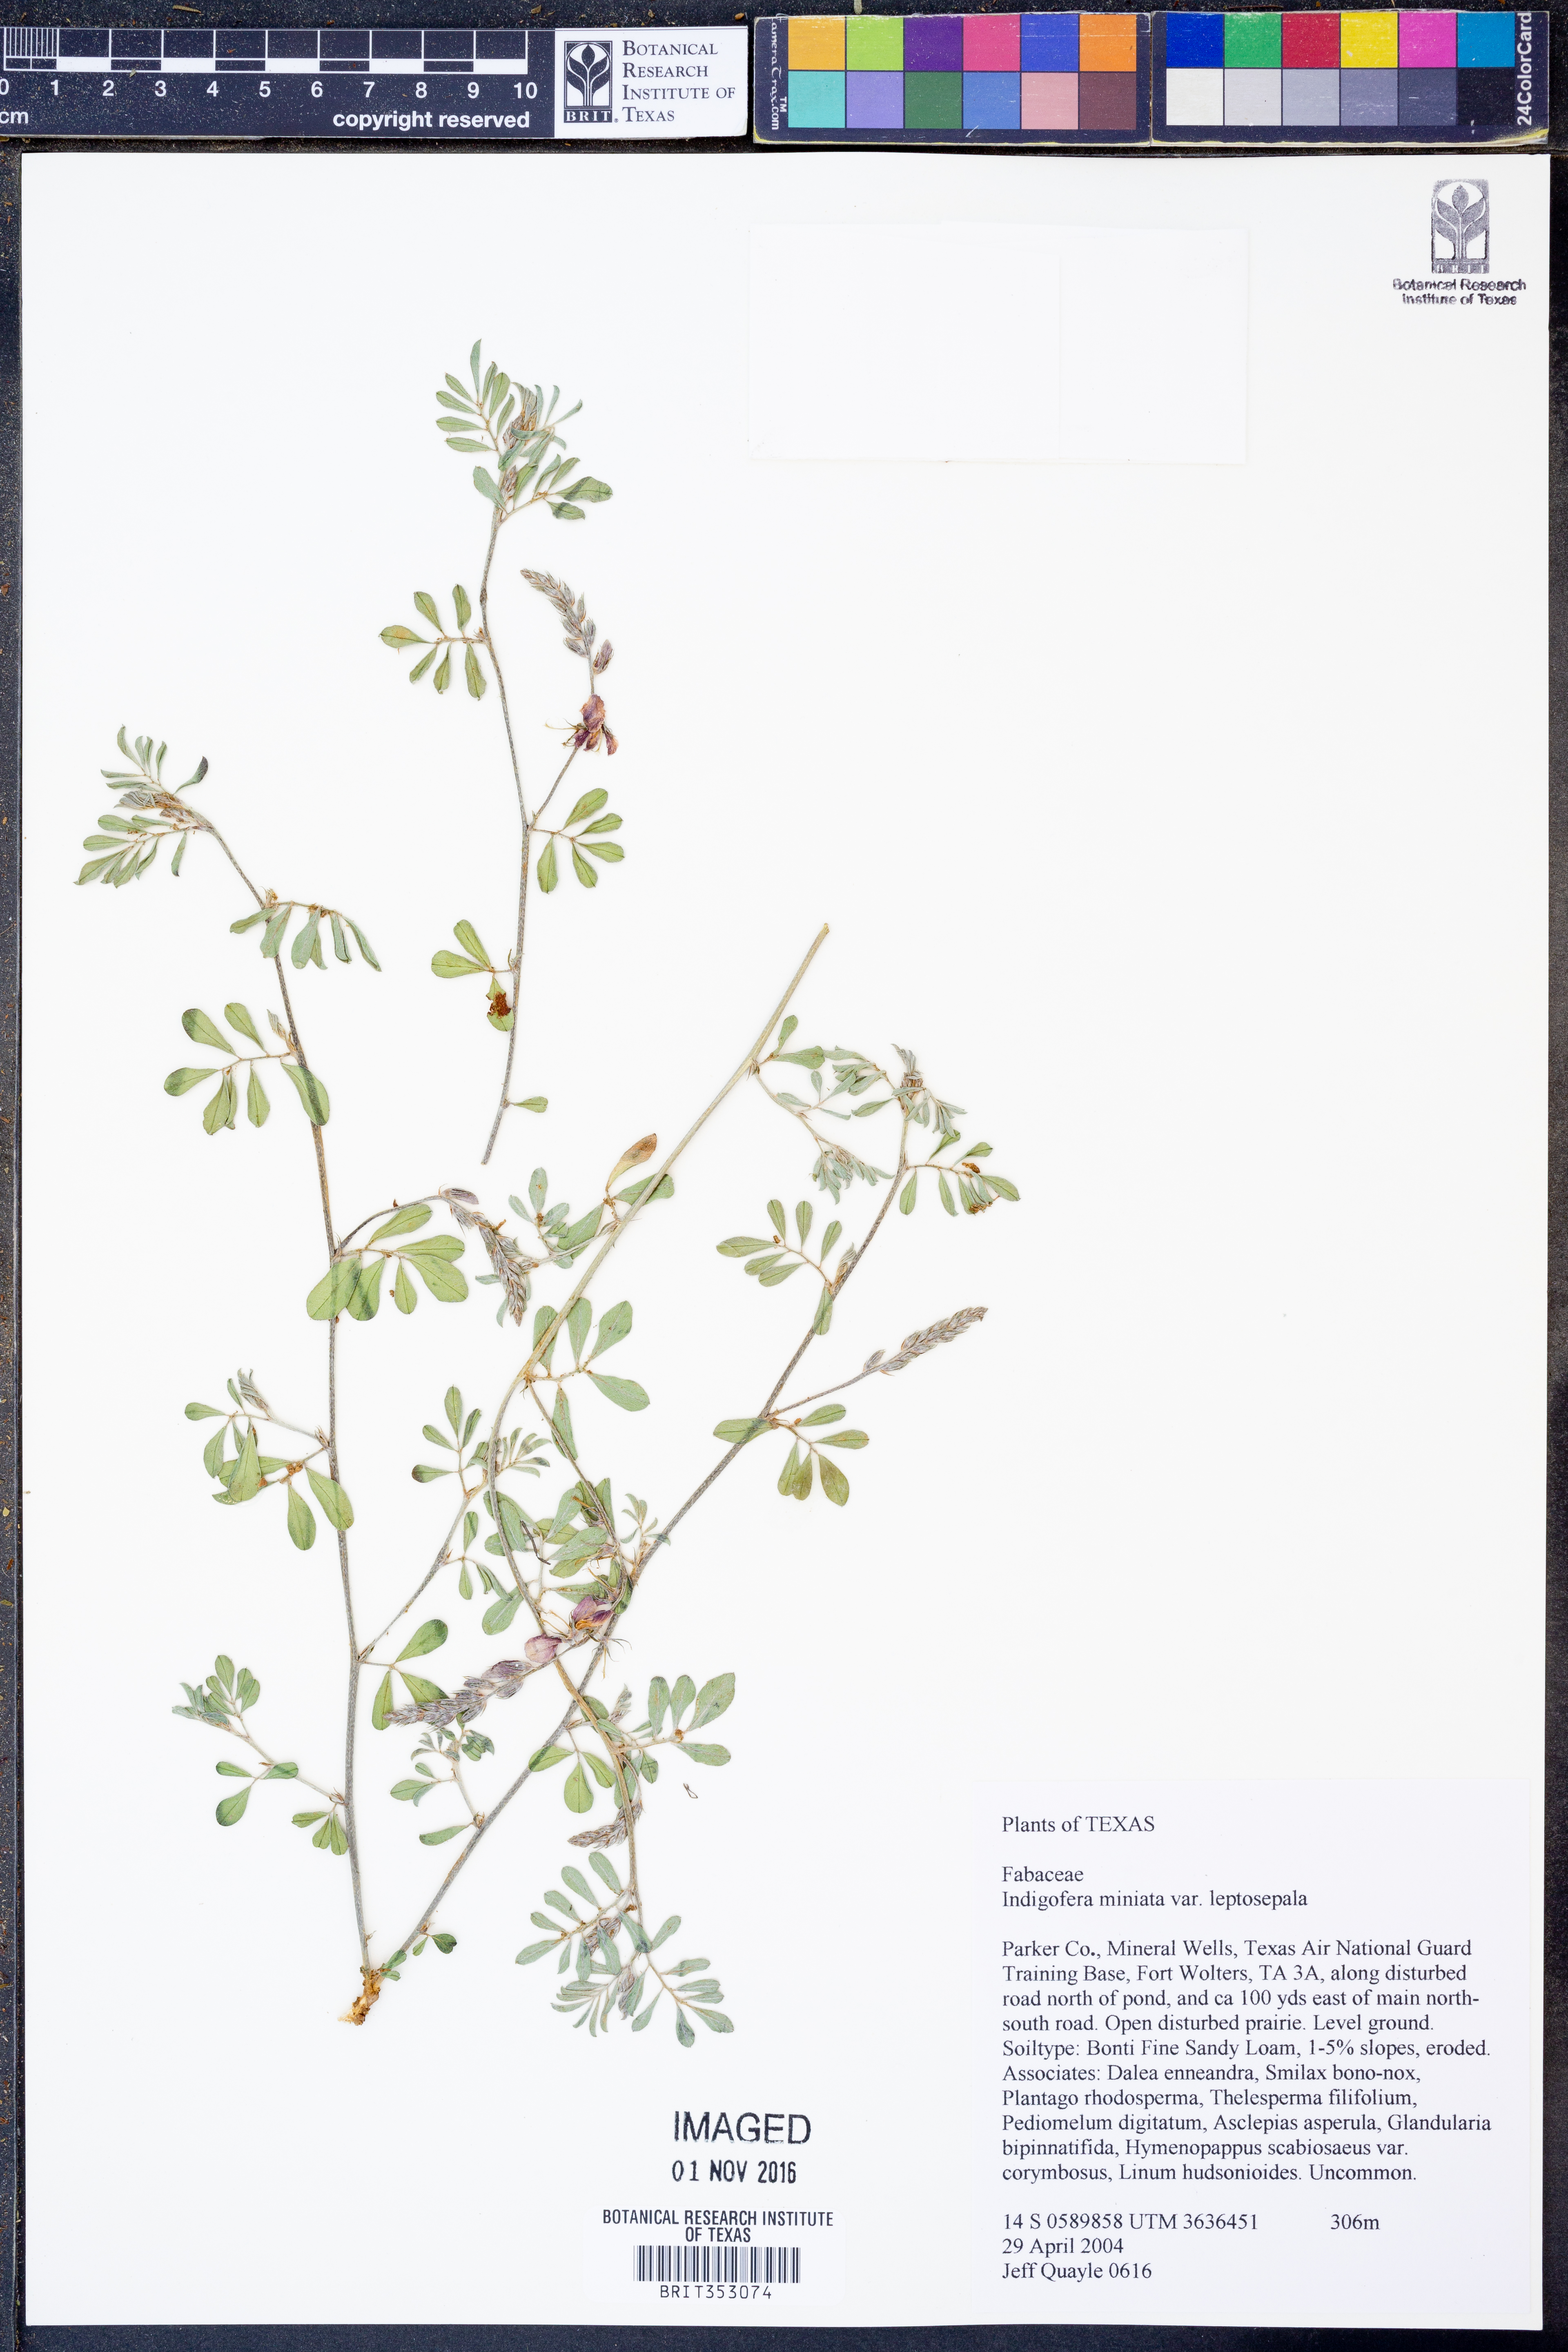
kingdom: Plantae
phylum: Tracheophyta
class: Magnoliopsida
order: Fabales
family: Fabaceae
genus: Indigofera
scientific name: Indigofera miniata
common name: Coast indigo
